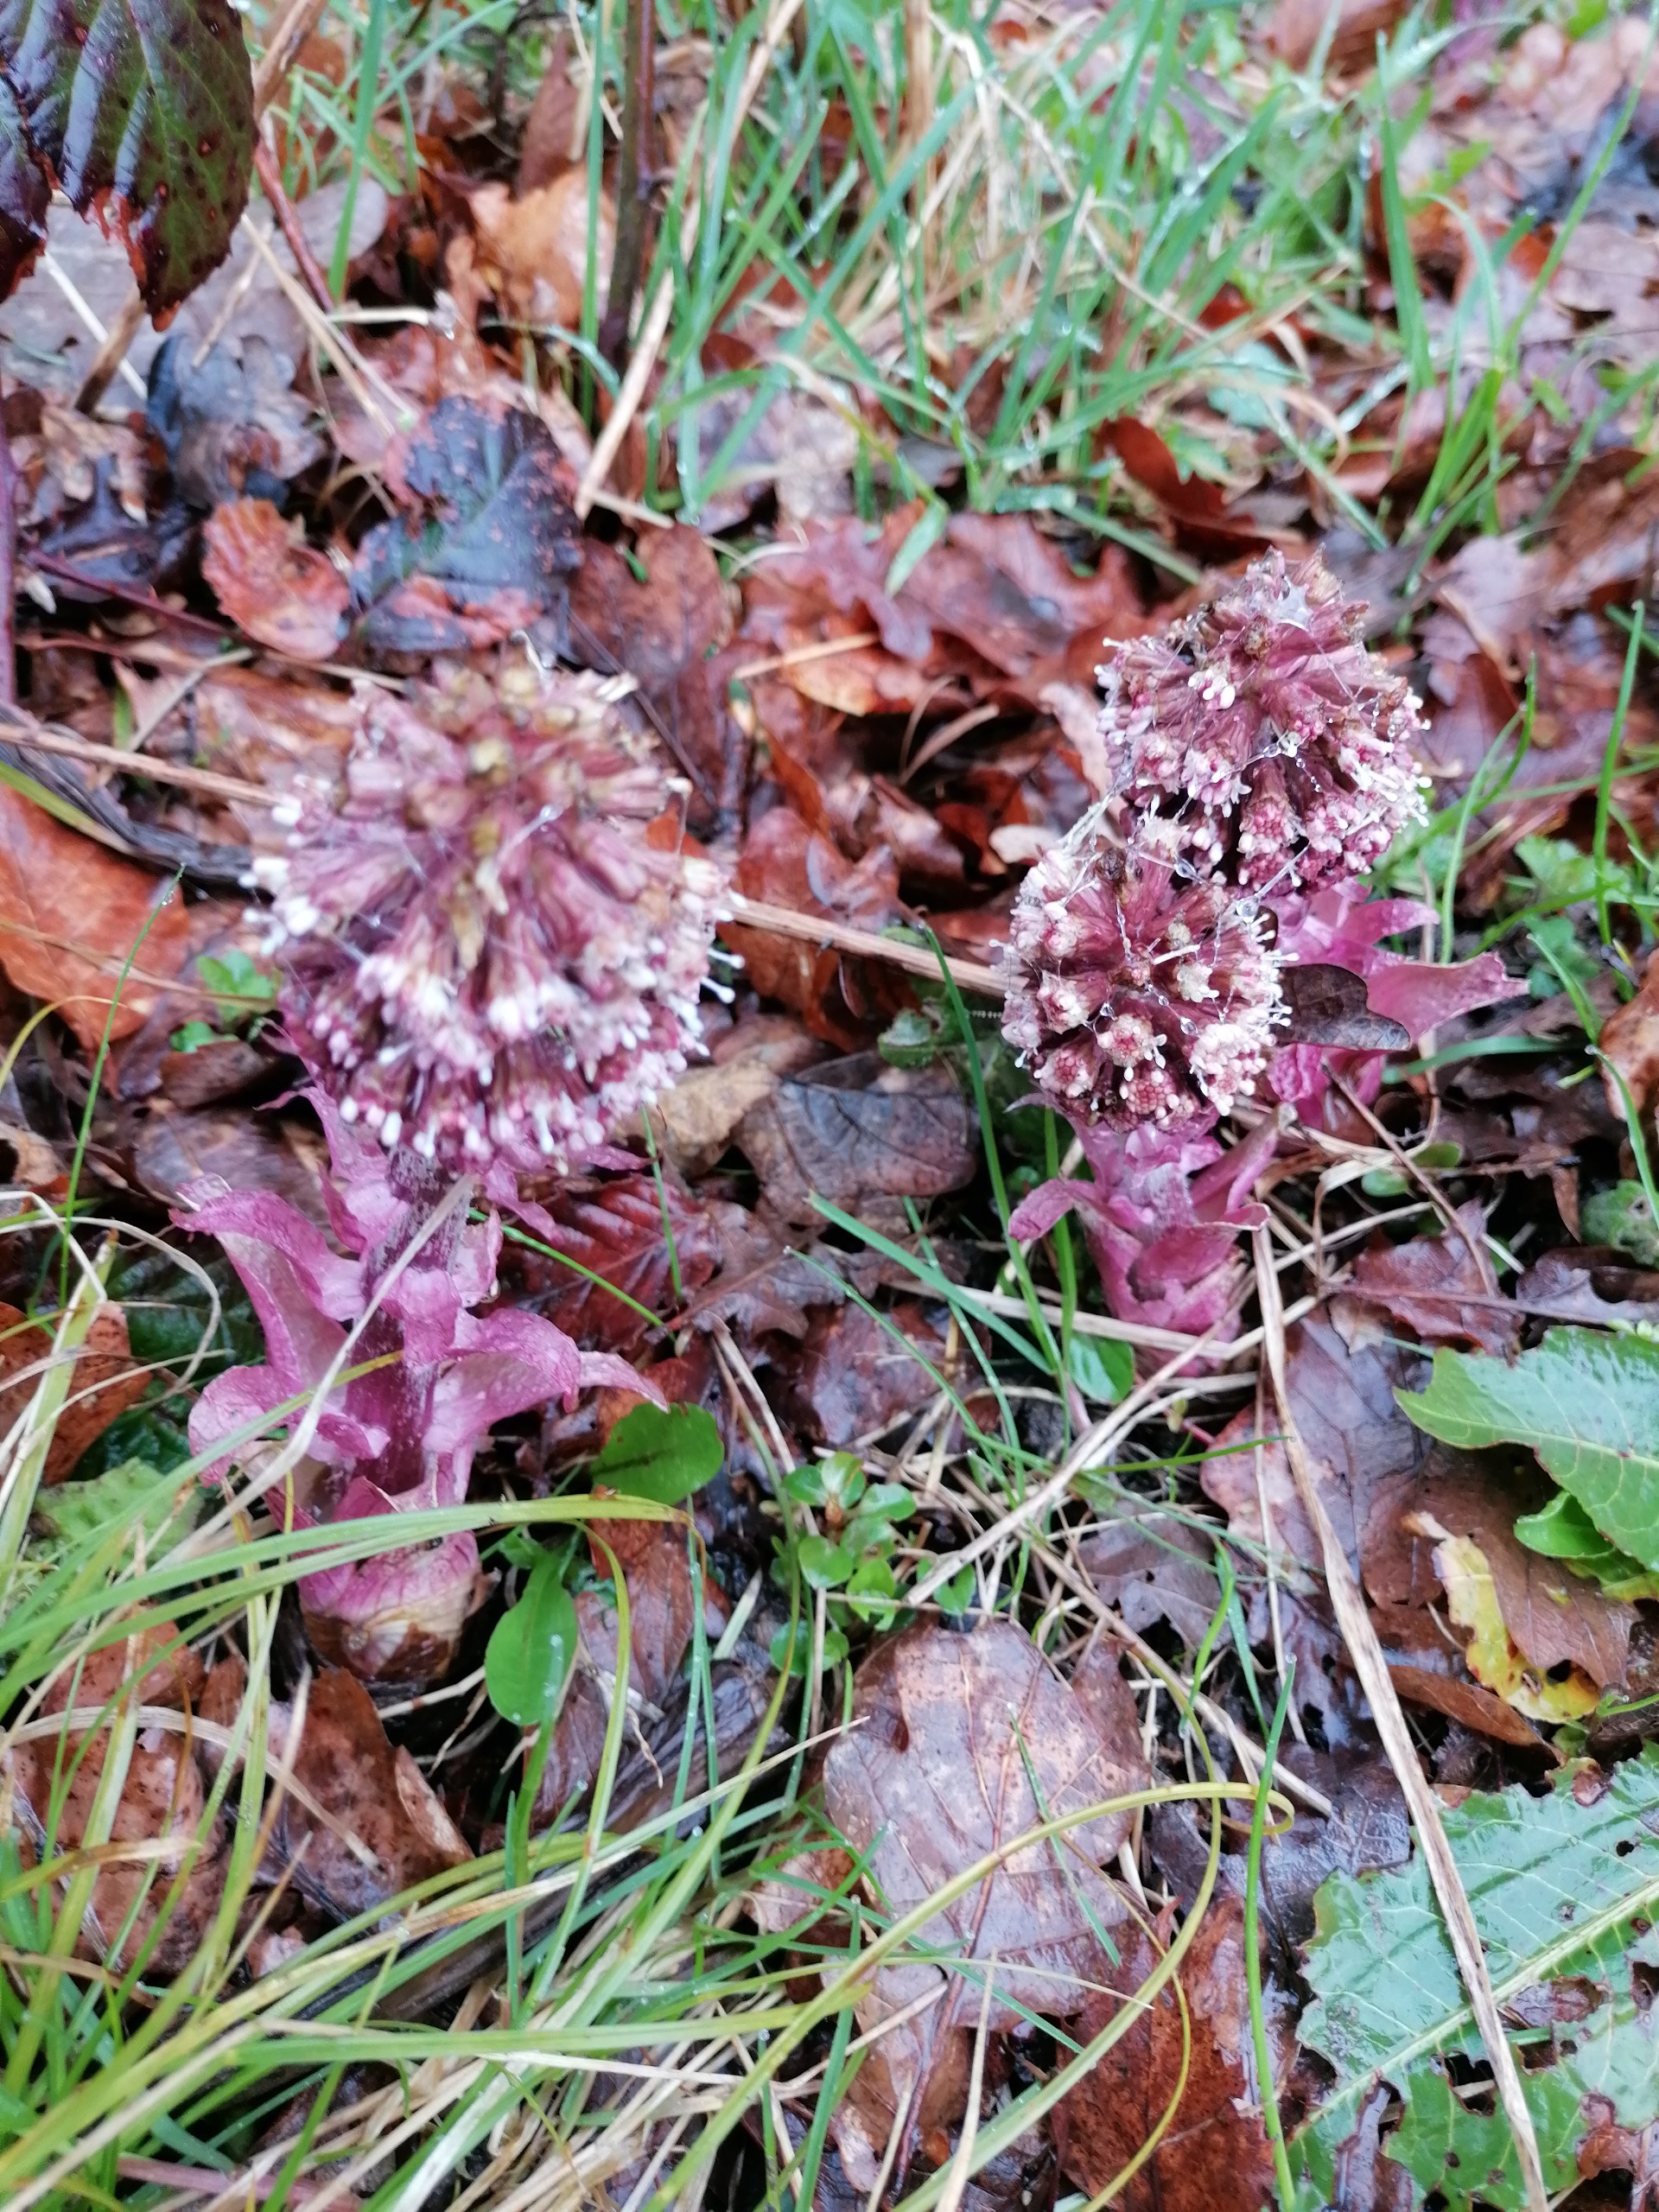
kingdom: Plantae
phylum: Tracheophyta
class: Magnoliopsida
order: Asterales
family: Asteraceae
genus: Petasites
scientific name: Petasites hybridus
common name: Rød hestehov
